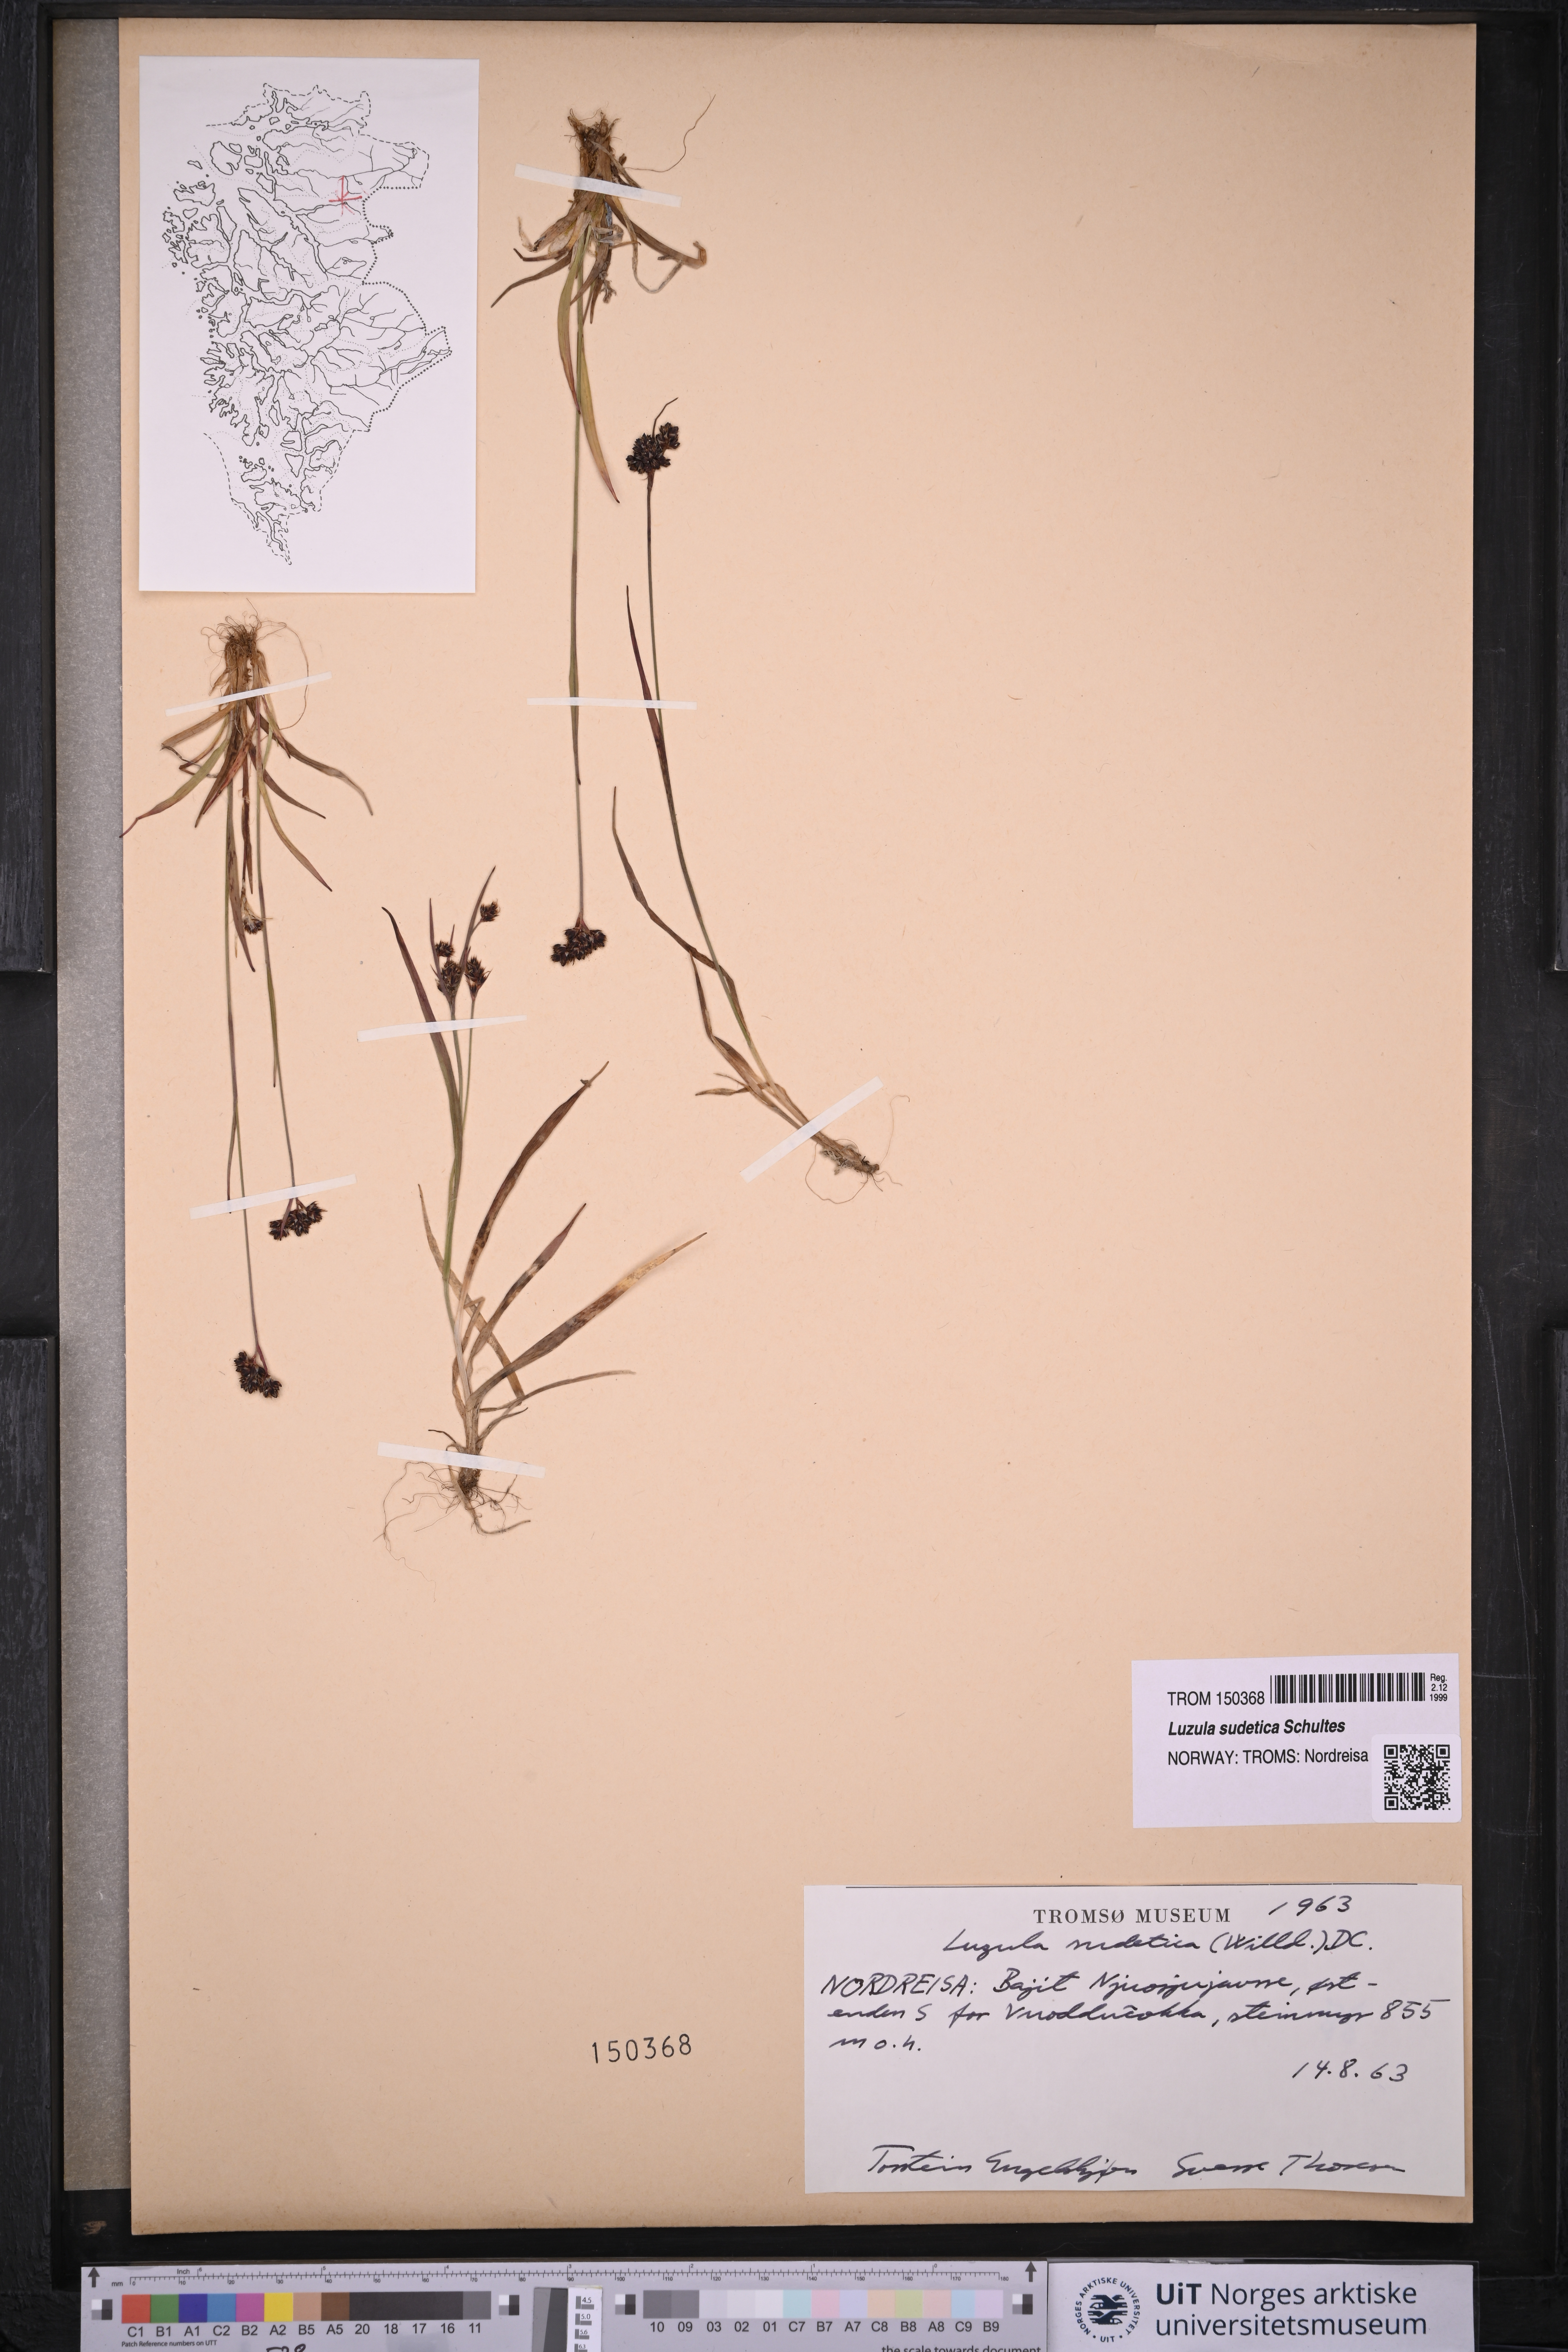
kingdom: Plantae
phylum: Tracheophyta
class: Liliopsida
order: Poales
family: Juncaceae
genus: Luzula
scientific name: Luzula sudetica
